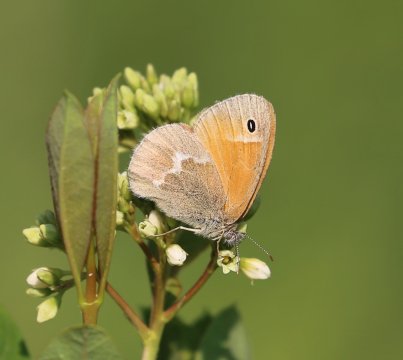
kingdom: Animalia
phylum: Arthropoda
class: Insecta
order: Lepidoptera
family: Nymphalidae
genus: Coenonympha
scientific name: Coenonympha tullia
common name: Large Heath
